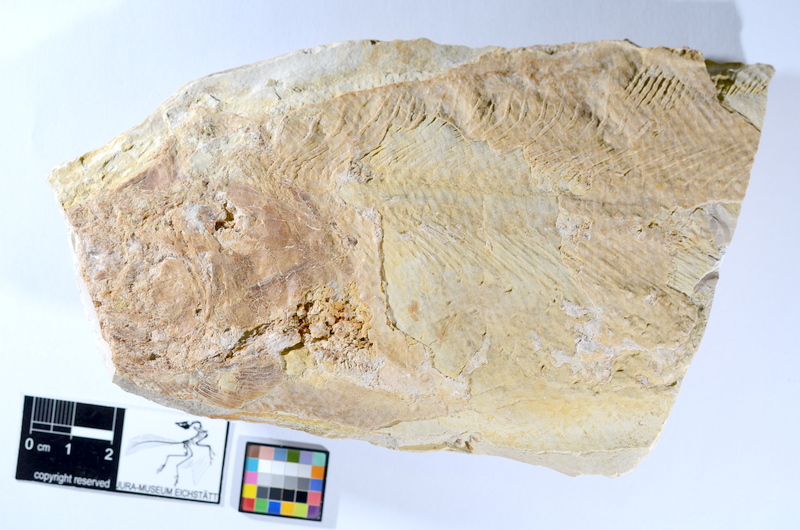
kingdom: Animalia
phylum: Chordata
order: Amiiformes
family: Caturidae
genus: Caturus
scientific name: Caturus
